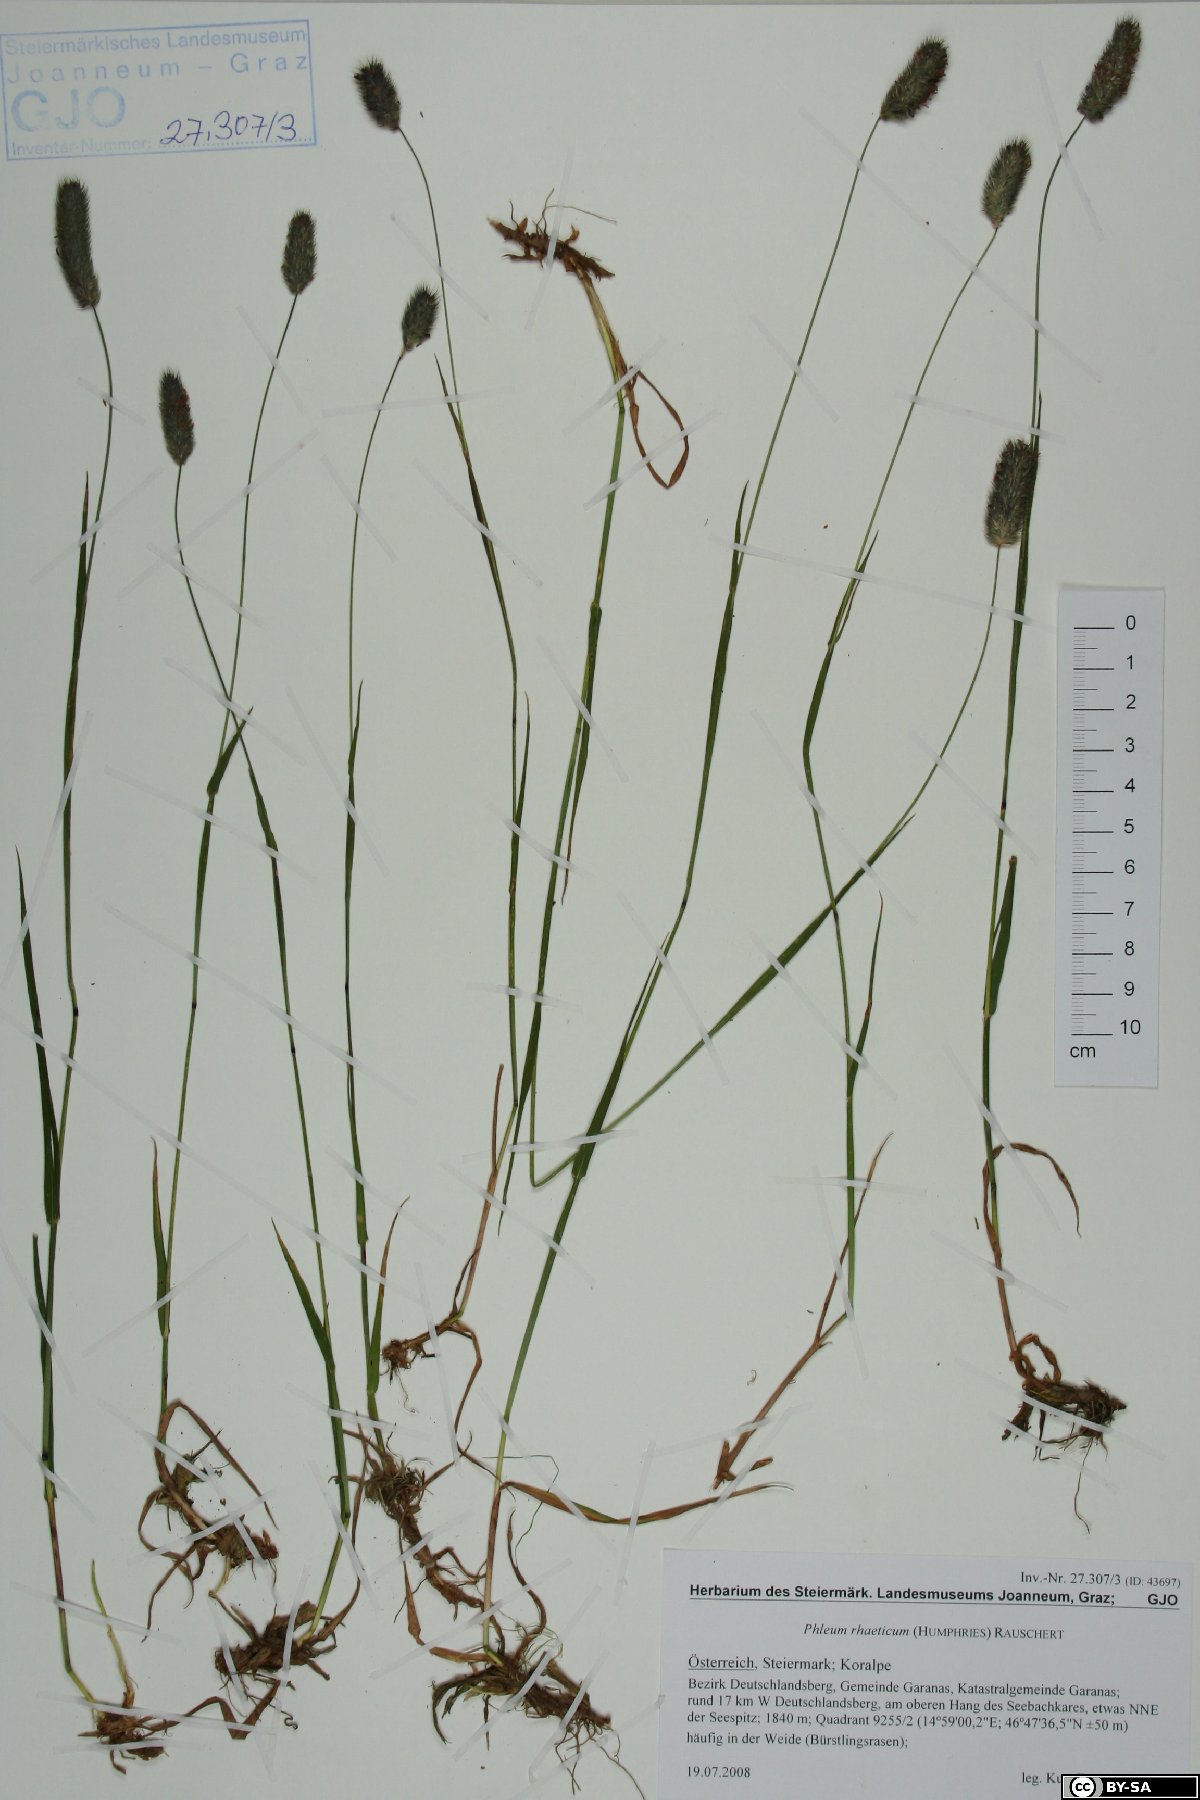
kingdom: Plantae
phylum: Tracheophyta
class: Liliopsida
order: Poales
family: Poaceae
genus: Phleum
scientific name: Phleum alpinum
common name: Alpine cat's-tail
